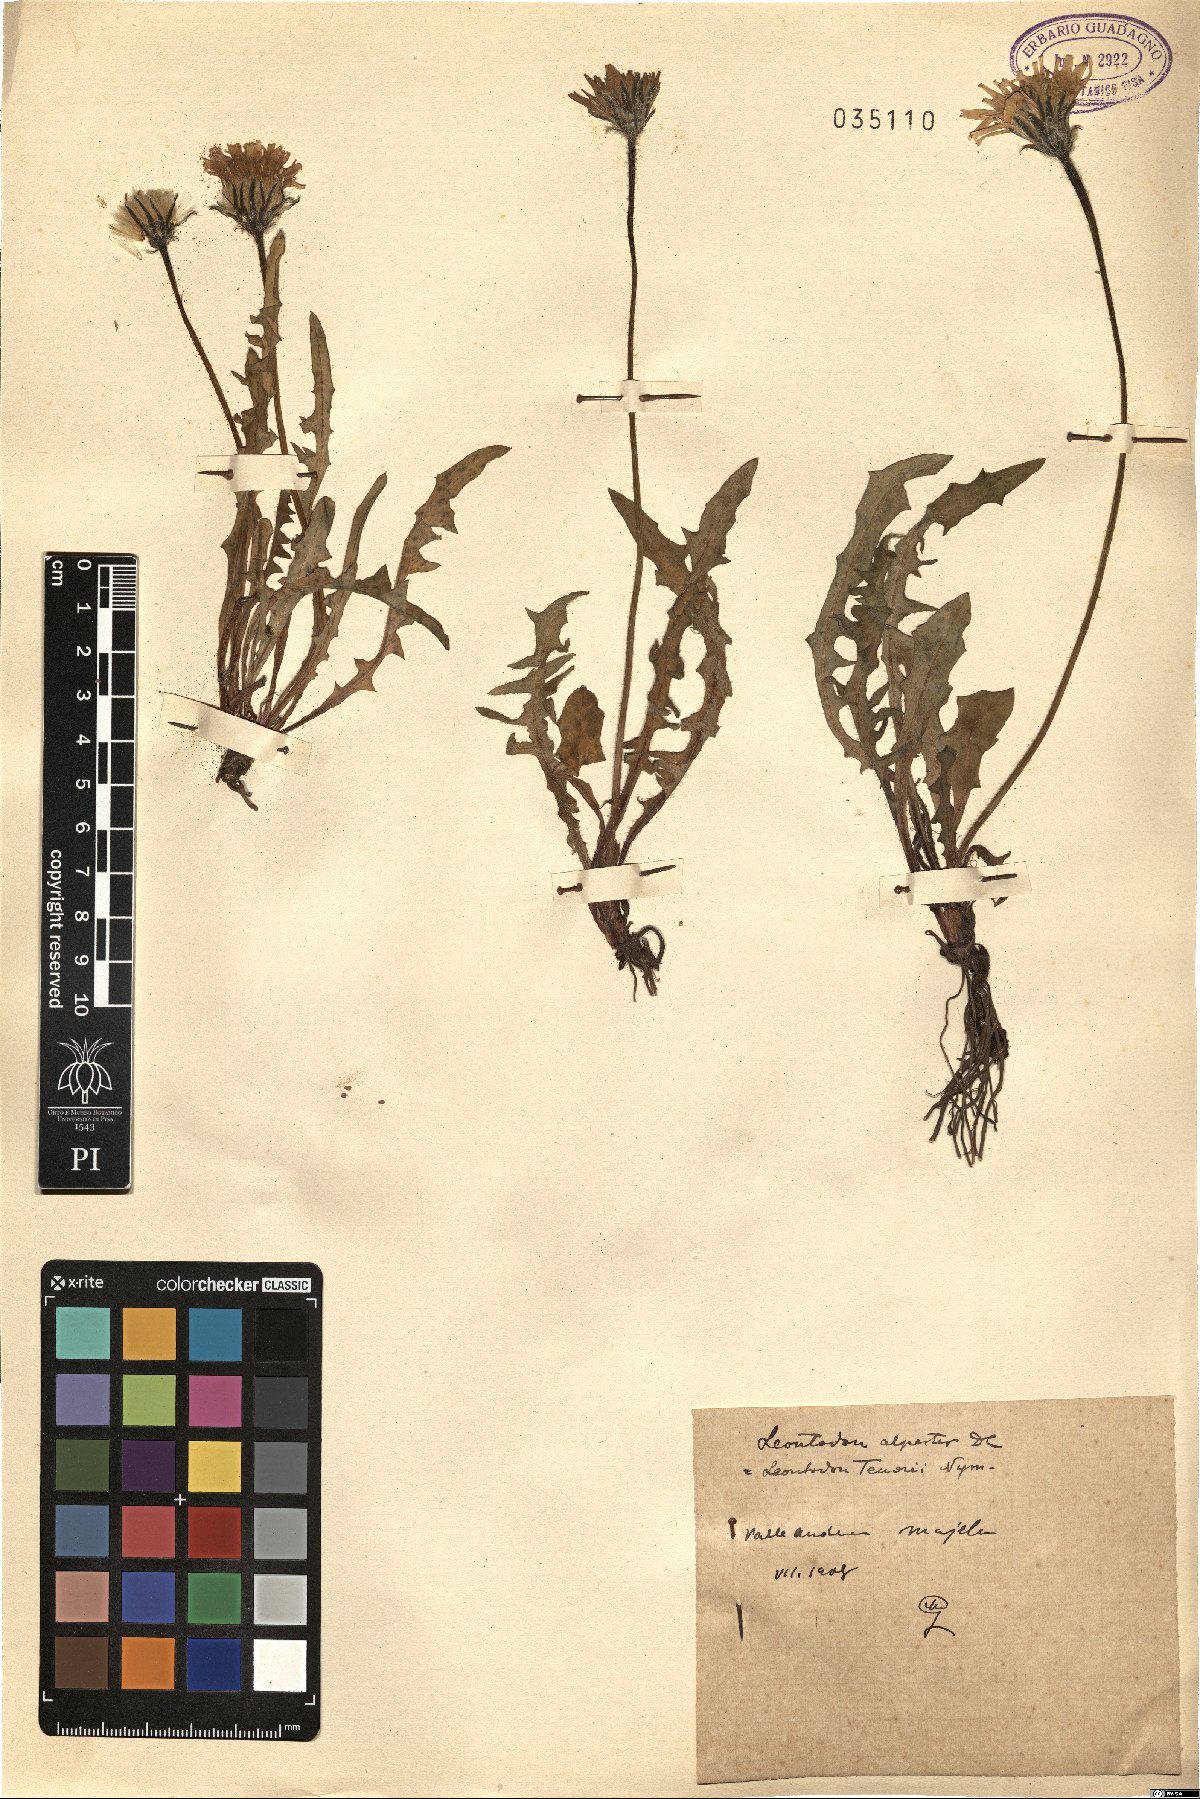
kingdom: Plantae
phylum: Tracheophyta
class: Magnoliopsida
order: Asterales
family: Asteraceae
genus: Leontodon
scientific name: Leontodon hyoseroides
